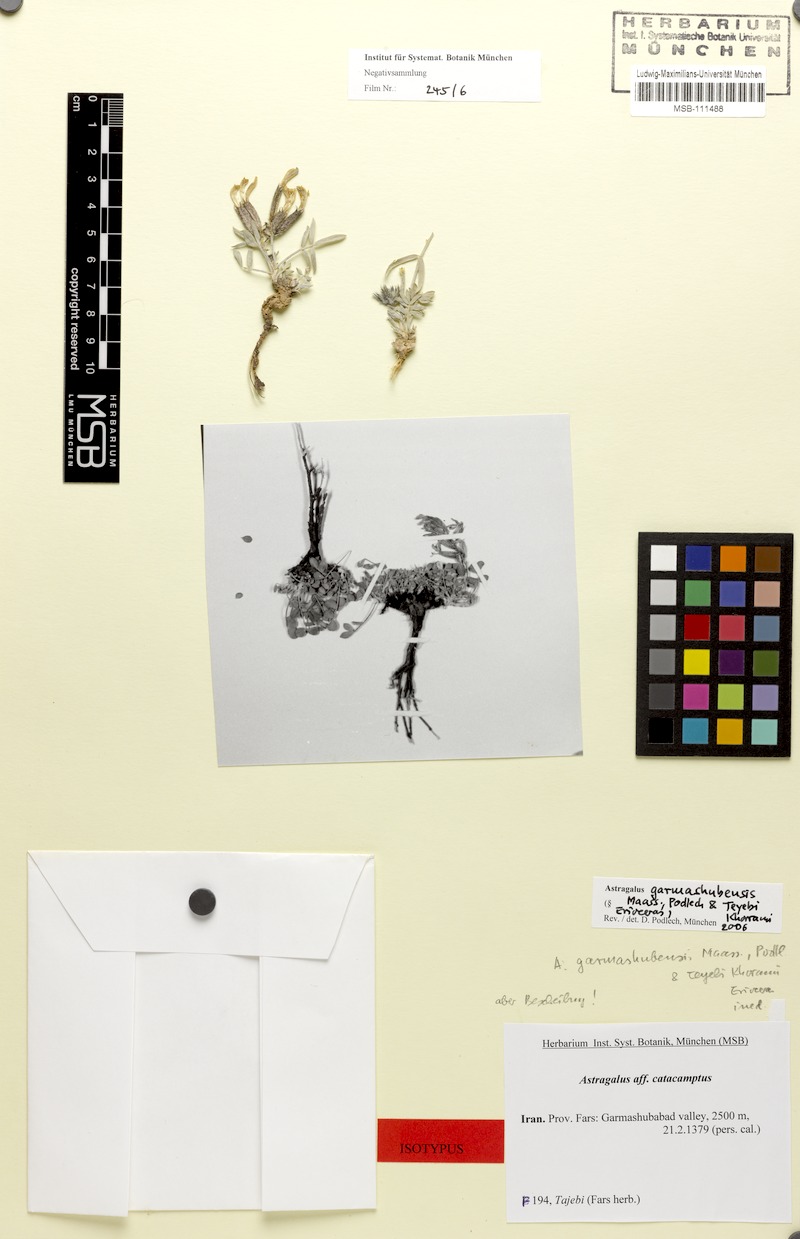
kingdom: Plantae
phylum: Tracheophyta
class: Magnoliopsida
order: Fabales
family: Fabaceae
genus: Astragalus
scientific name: Astragalus garmashubensis
